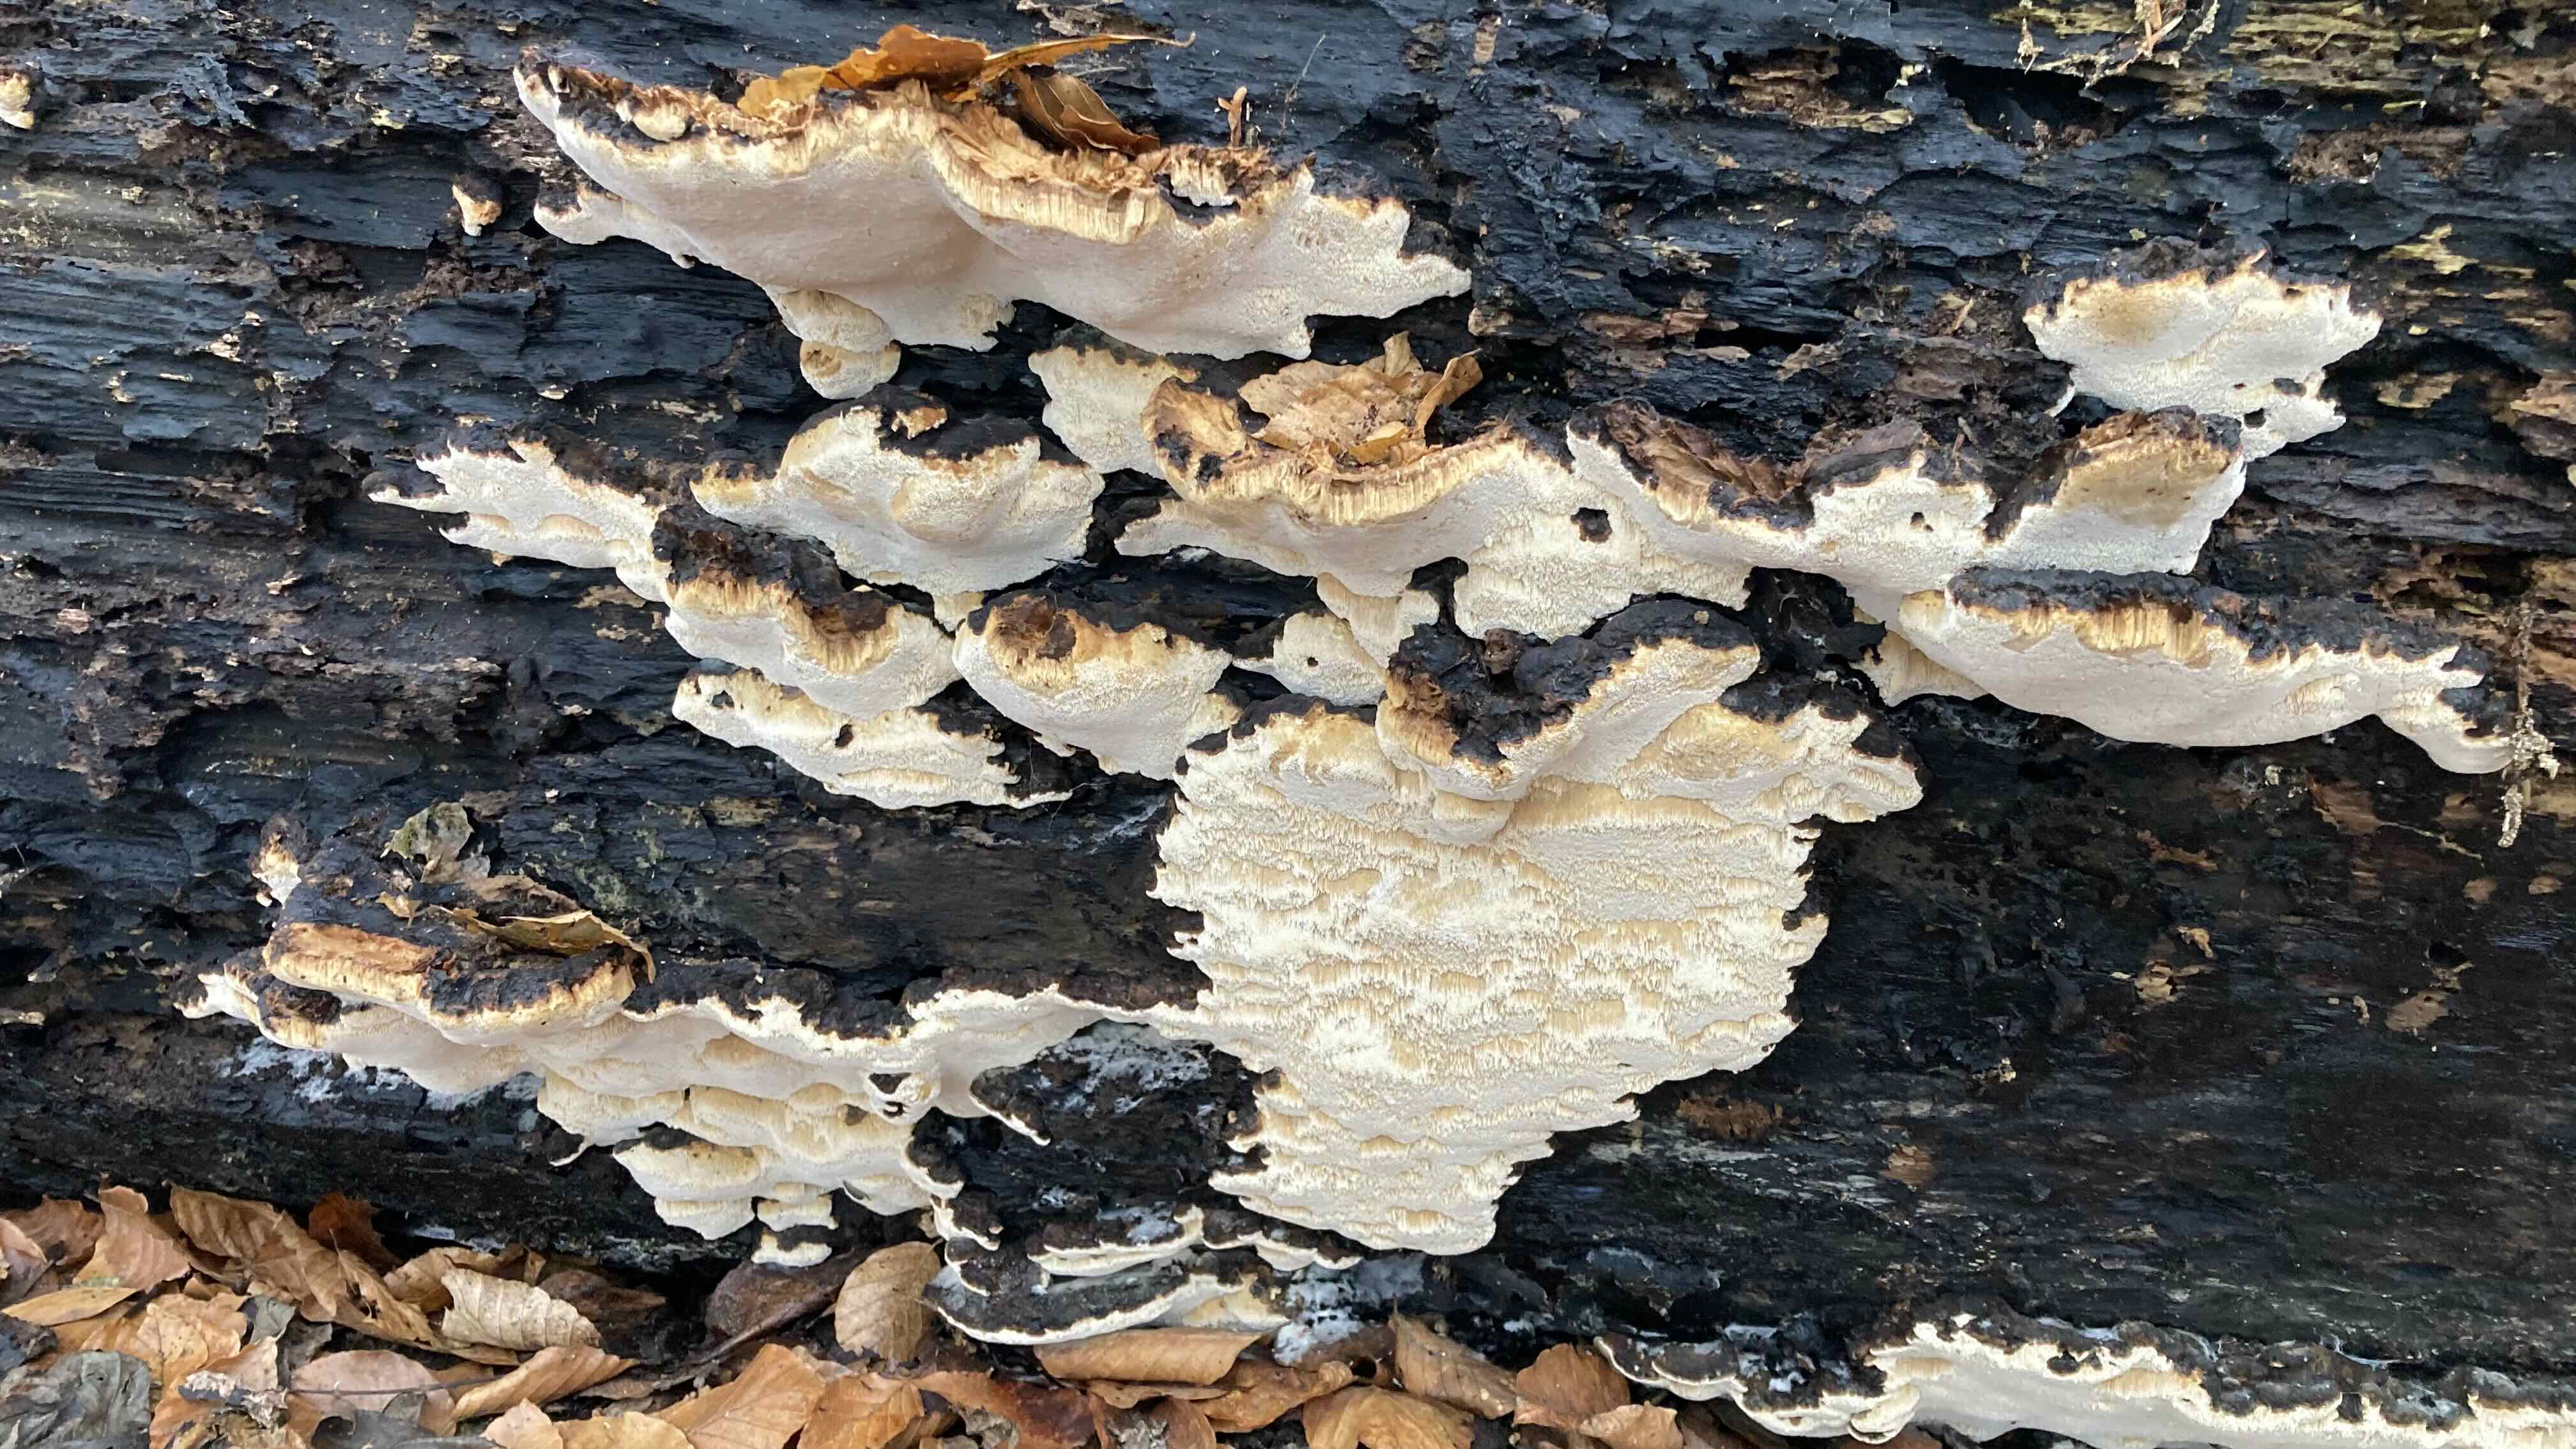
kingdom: Fungi
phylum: Basidiomycota
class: Agaricomycetes
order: Polyporales
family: Ischnodermataceae
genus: Ischnoderma
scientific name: Ischnoderma resinosum
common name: løv-tjæreporesvamp
